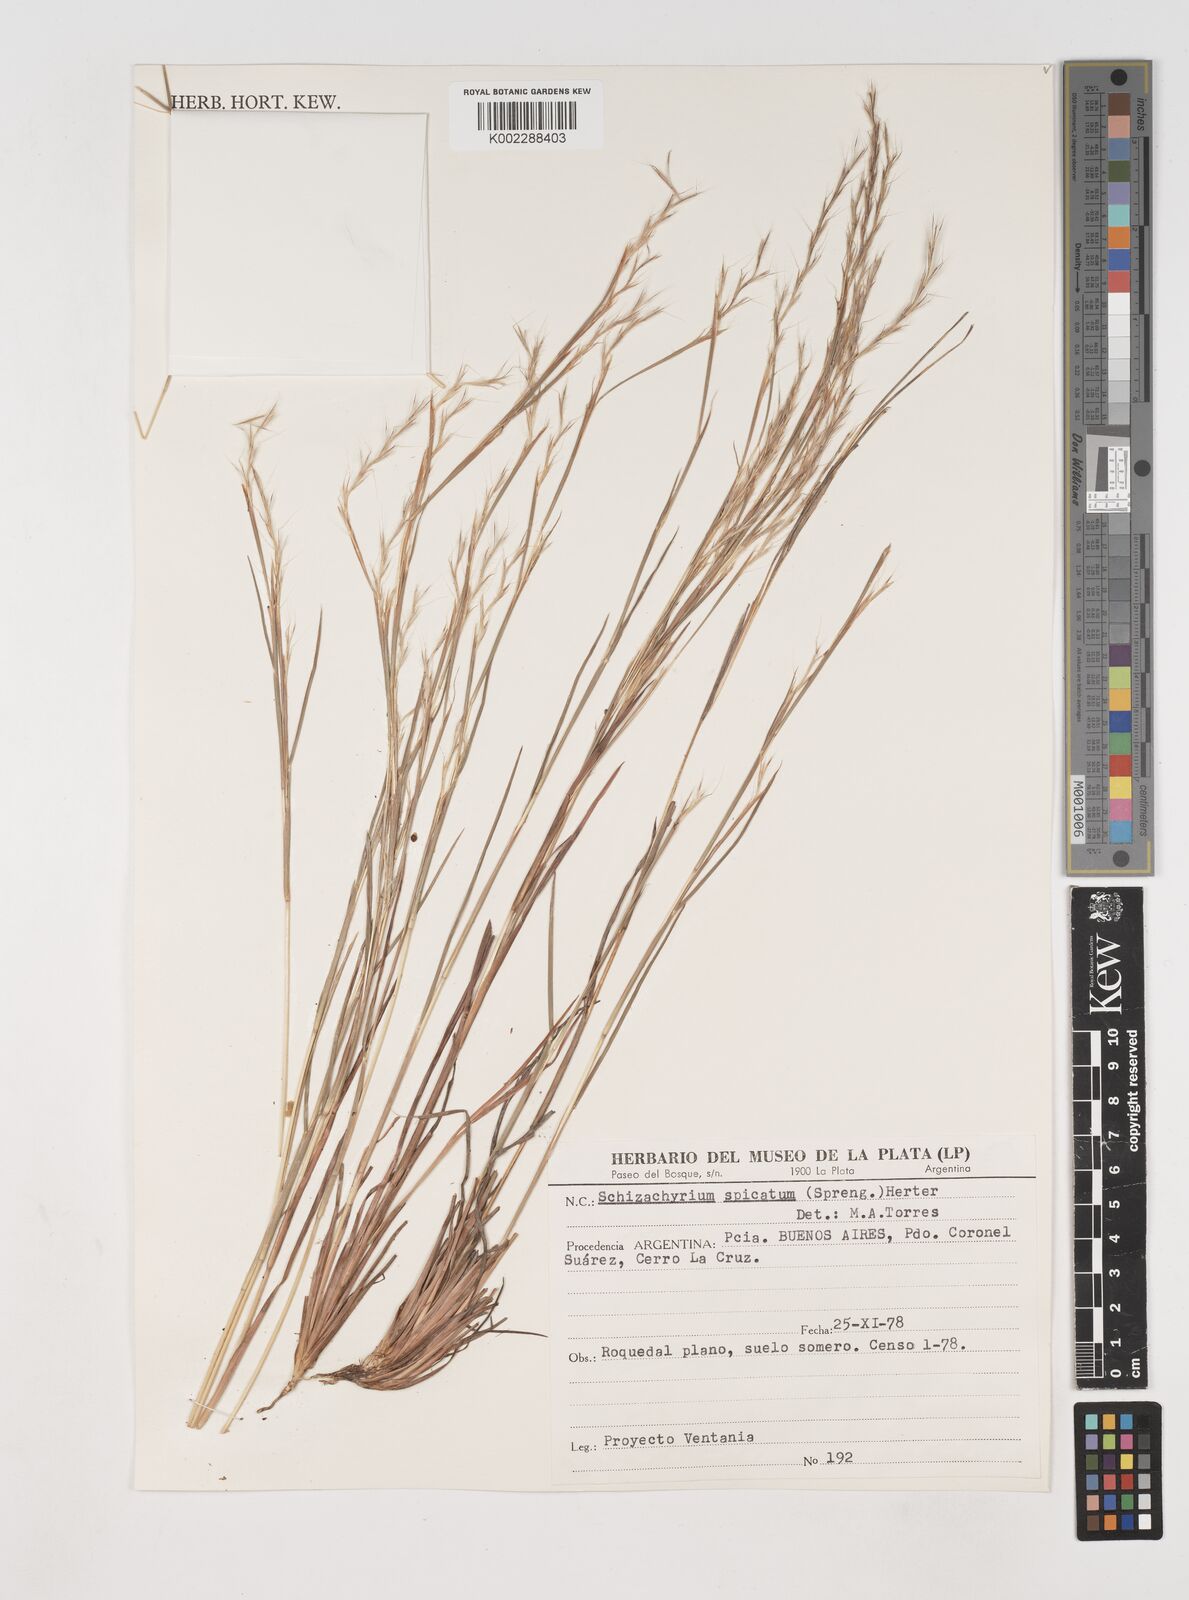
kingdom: Plantae
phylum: Tracheophyta
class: Liliopsida
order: Poales
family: Poaceae
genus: Schizachyrium
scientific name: Schizachyrium spicatum
